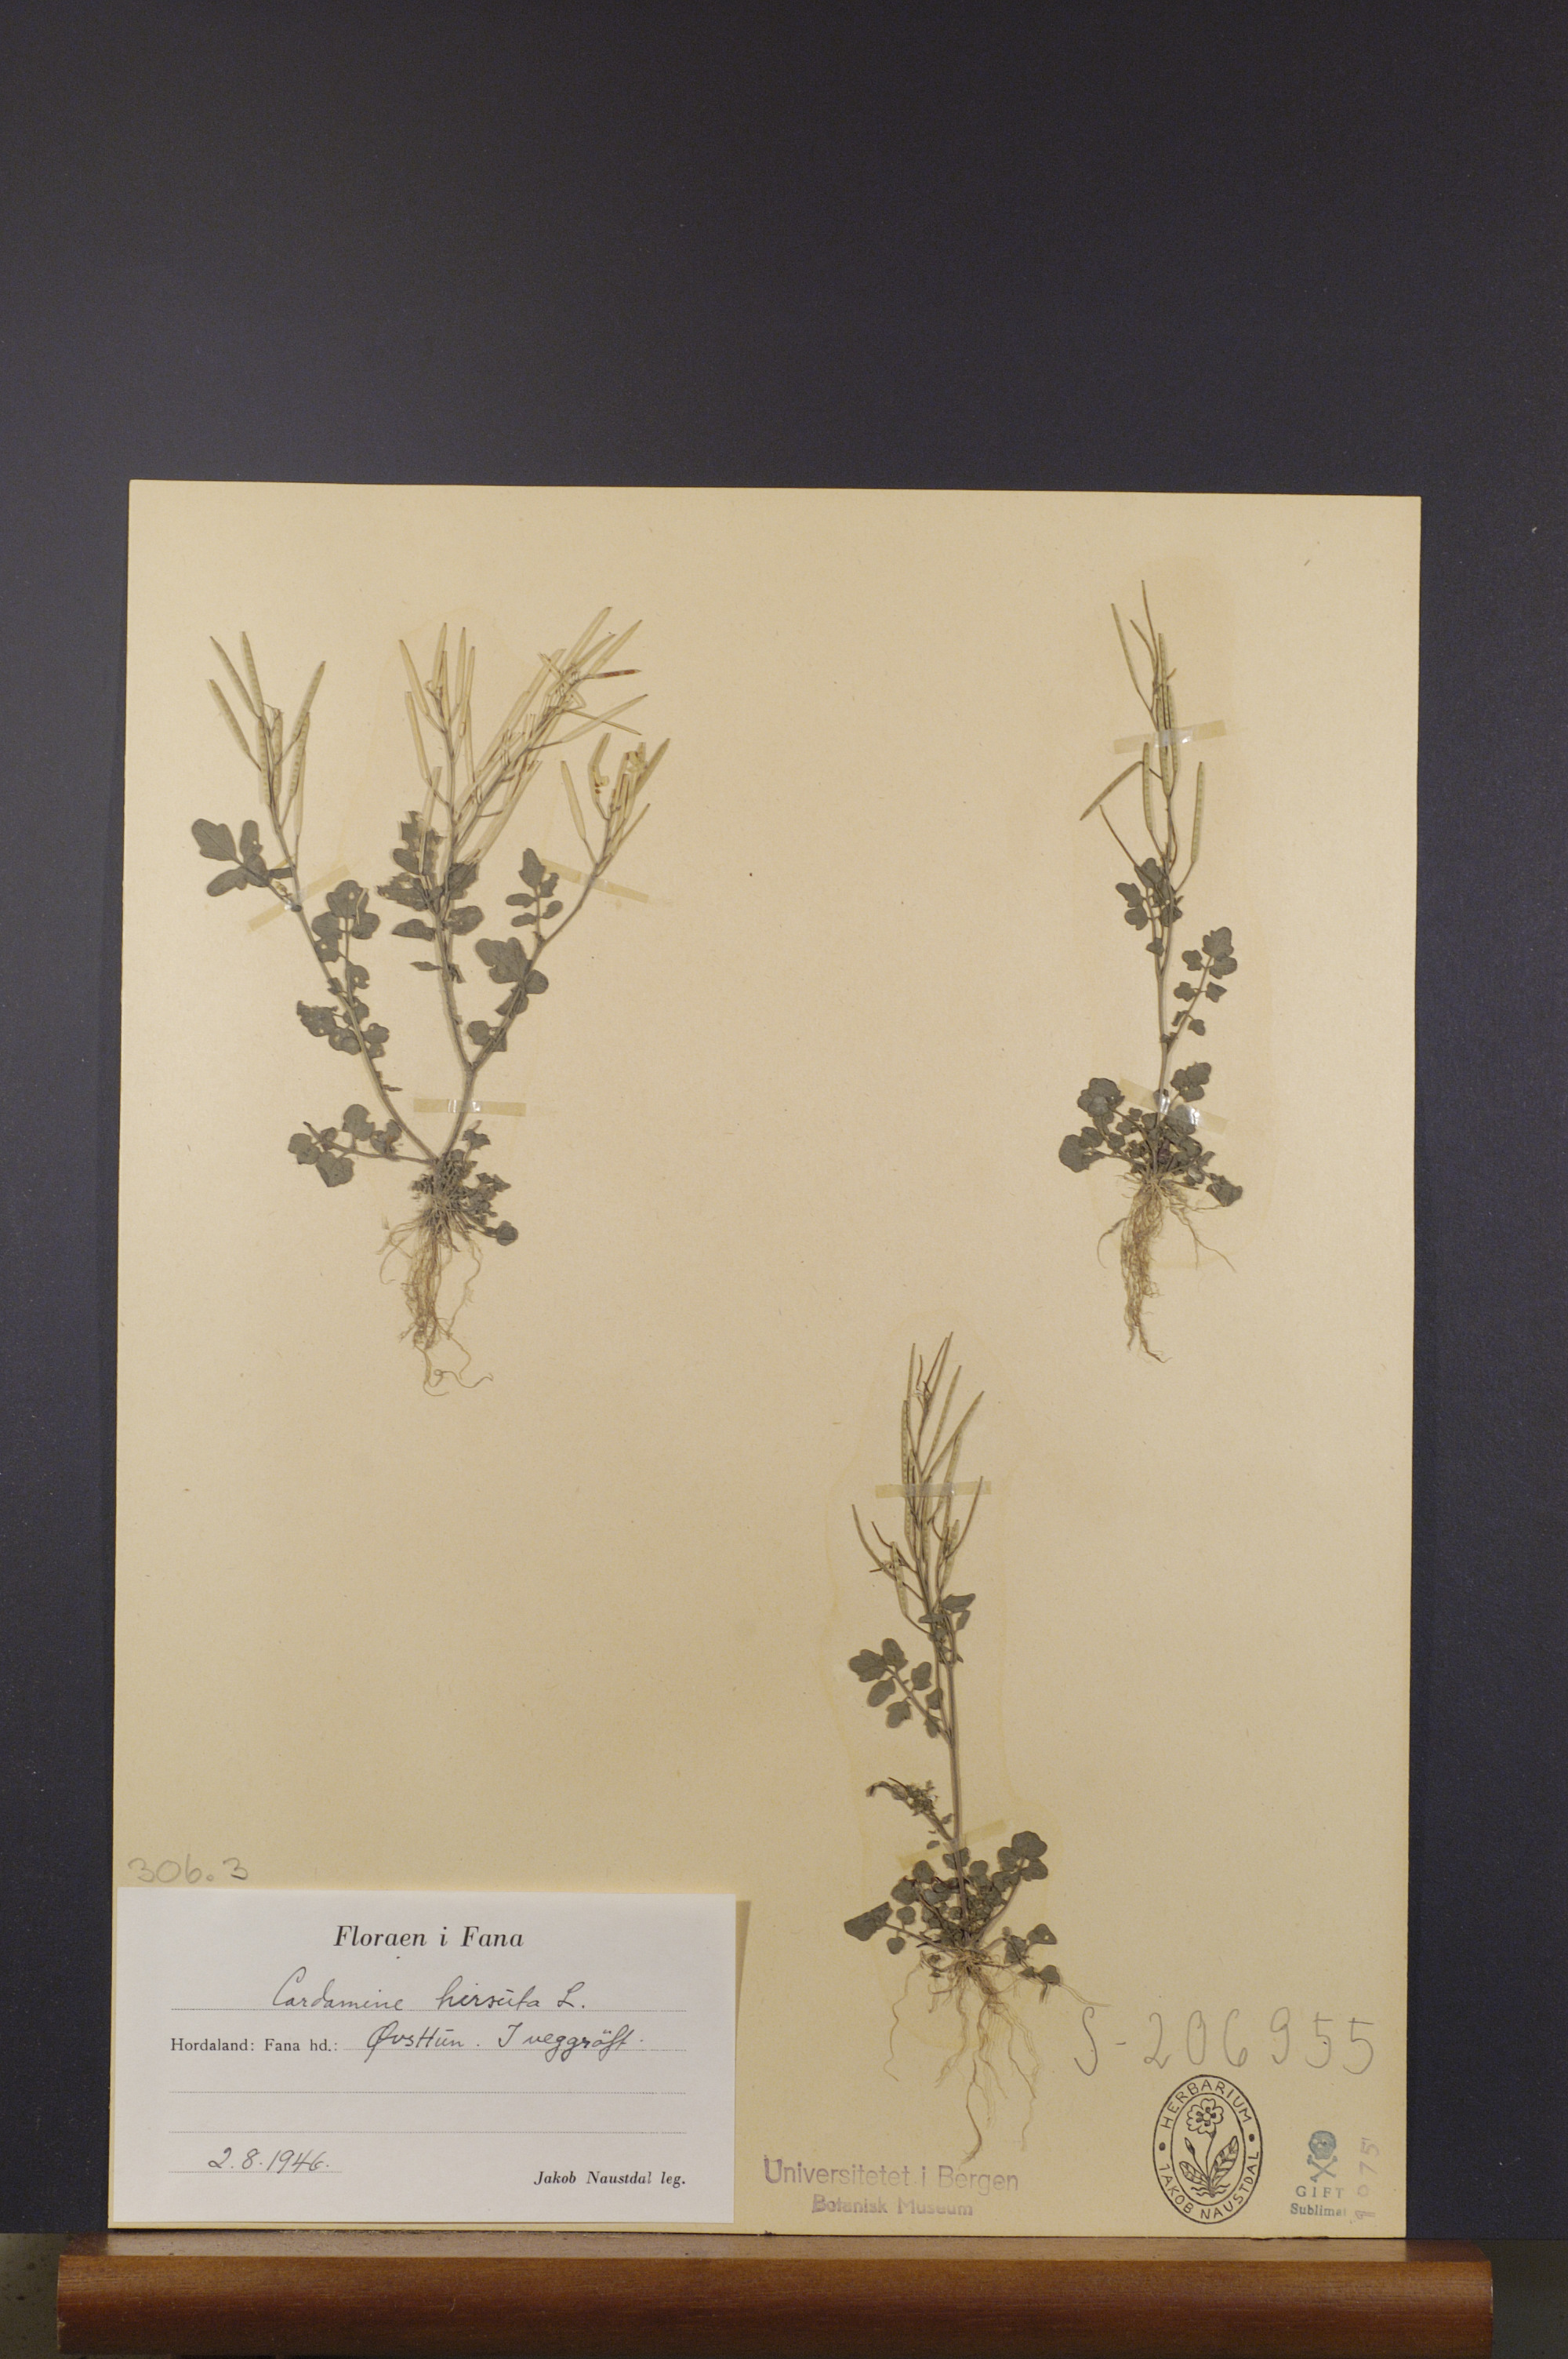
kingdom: Plantae
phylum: Tracheophyta
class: Magnoliopsida
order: Brassicales
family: Brassicaceae
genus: Cardamine
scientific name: Cardamine hirsuta
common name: Hairy bittercress
